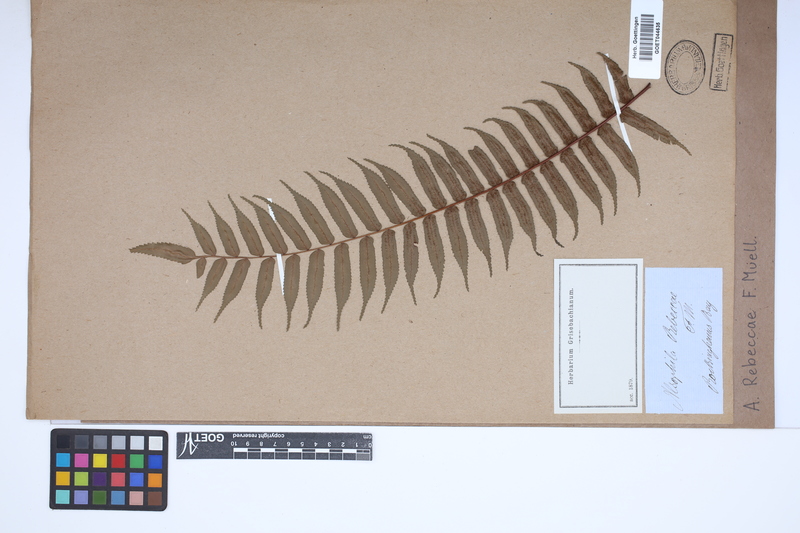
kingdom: Plantae
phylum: Tracheophyta
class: Polypodiopsida
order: Cyatheales
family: Cyatheaceae
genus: Gymnosphaera
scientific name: Gymnosphaera rebeccae
